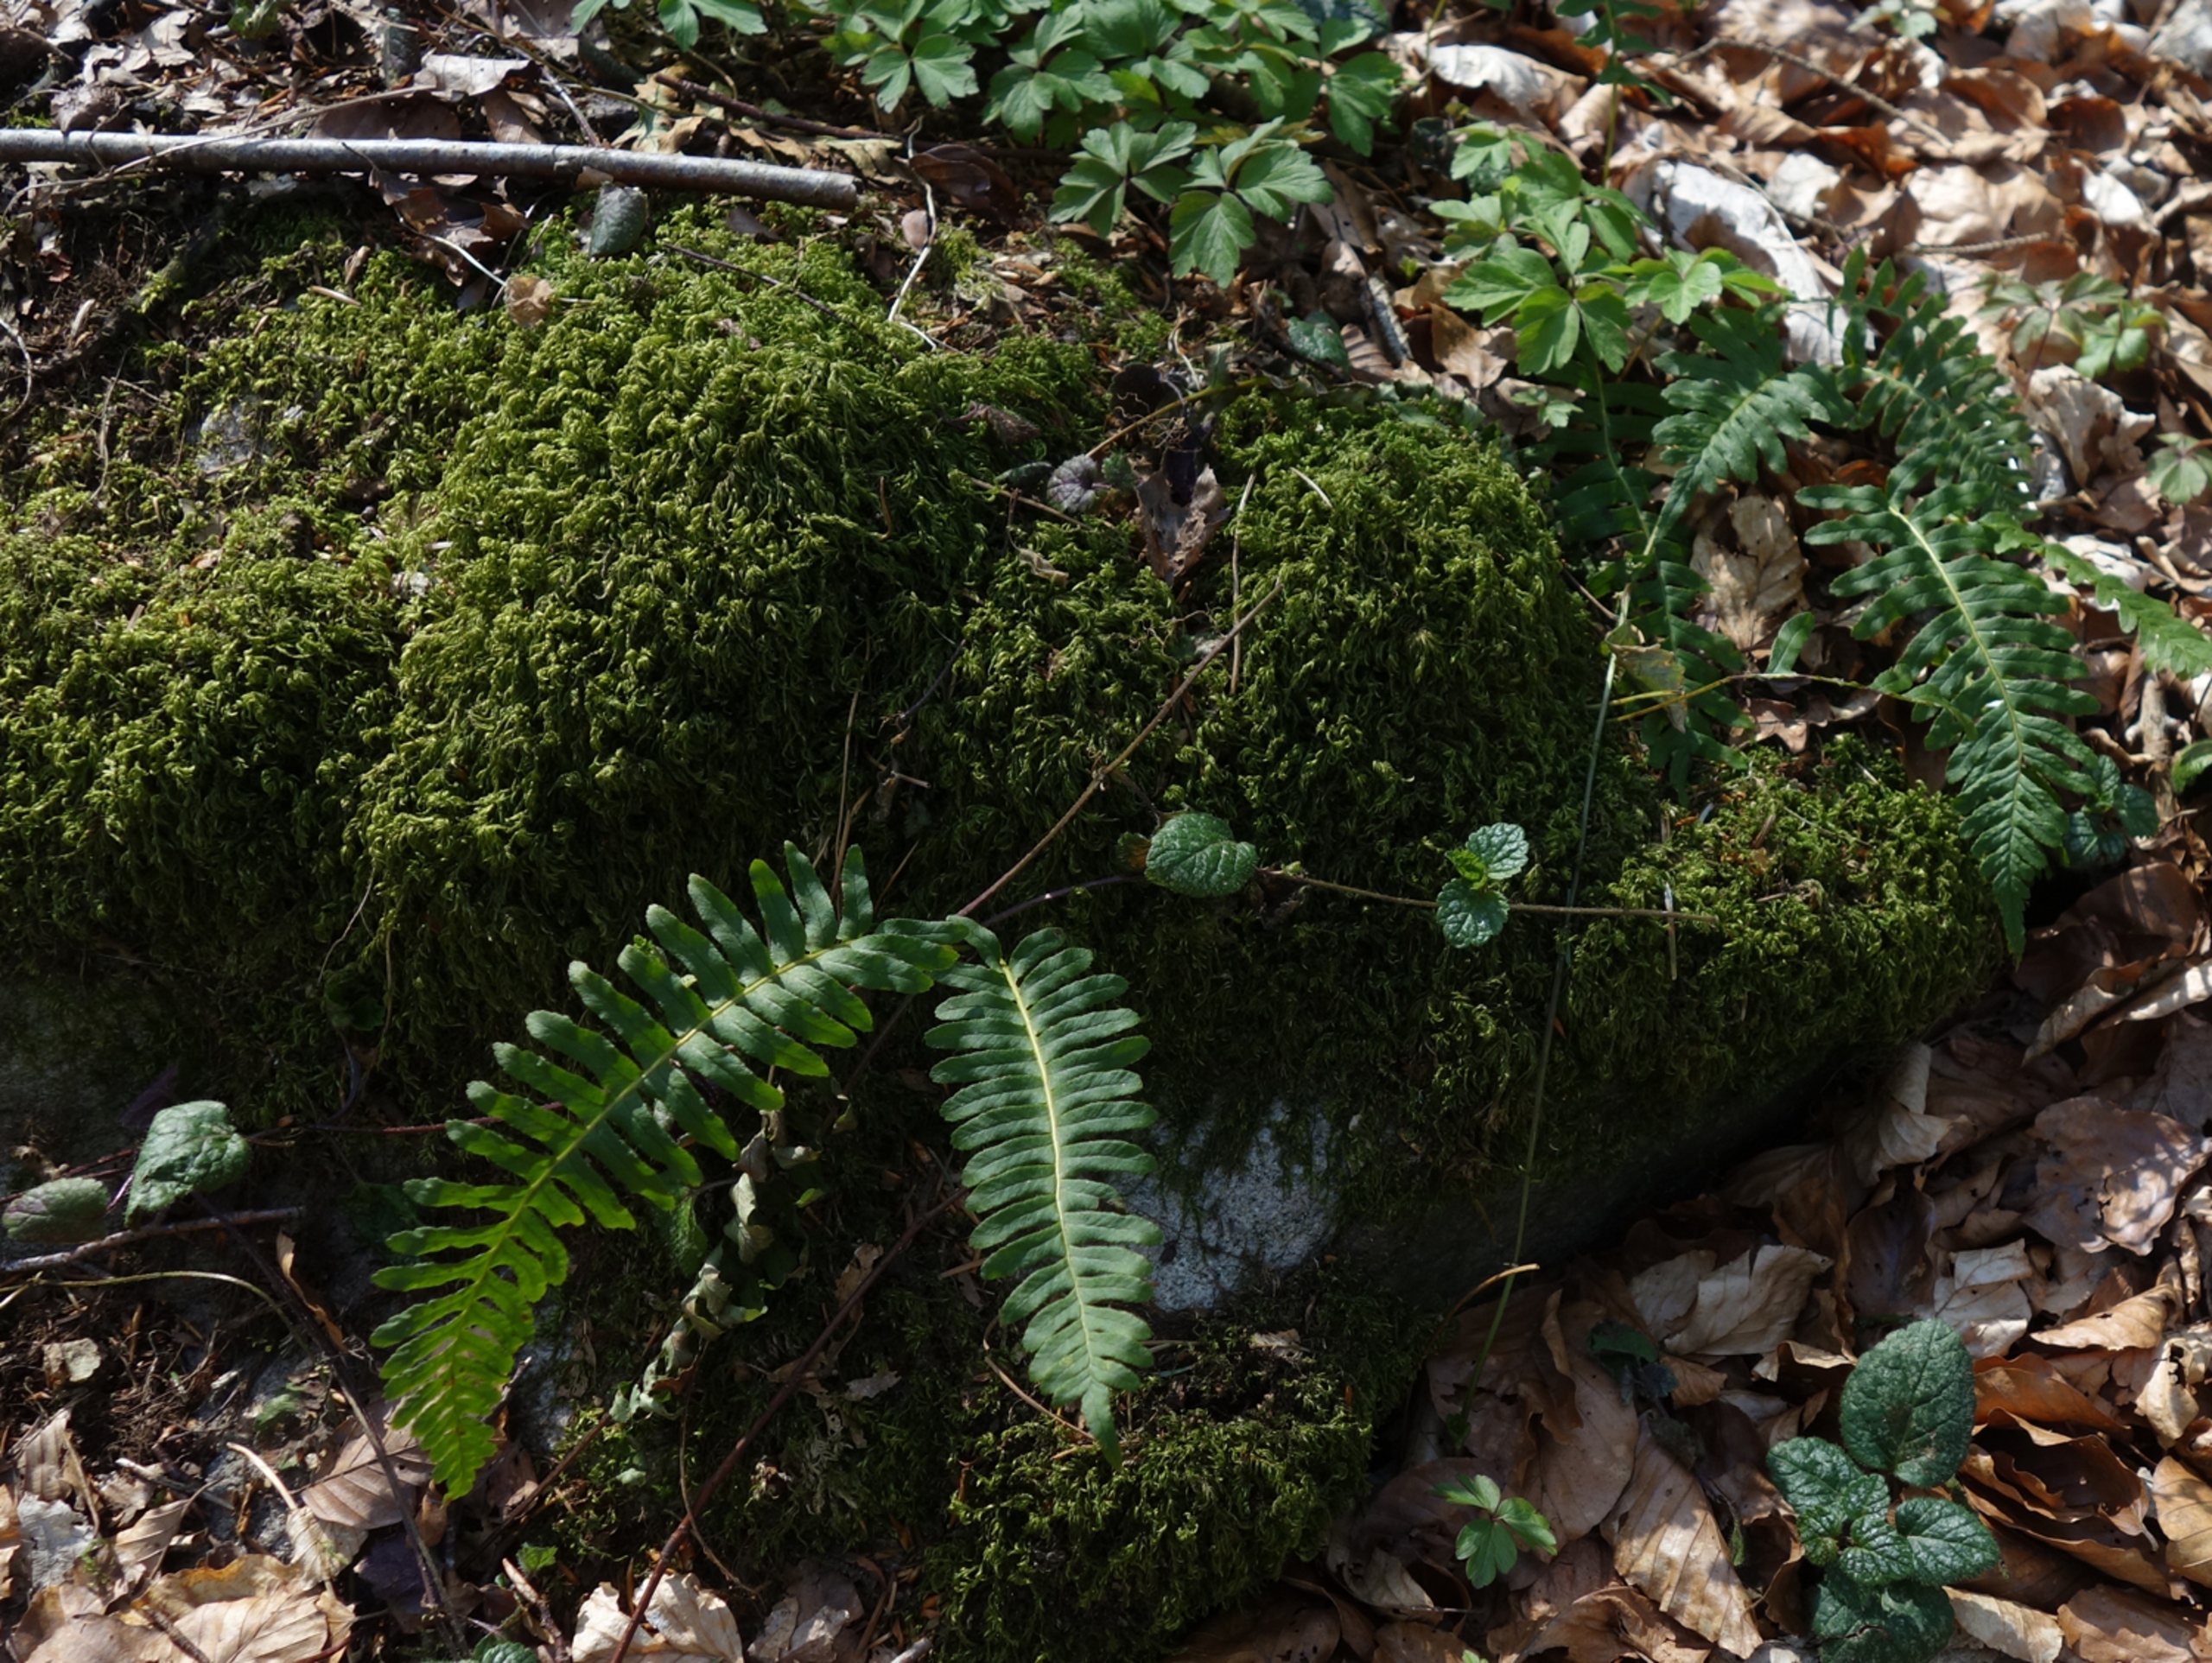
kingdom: Plantae
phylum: Tracheophyta
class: Polypodiopsida
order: Polypodiales
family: Polypodiaceae
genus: Polypodium
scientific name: Polypodium vulgare
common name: Almindelig engelsød
